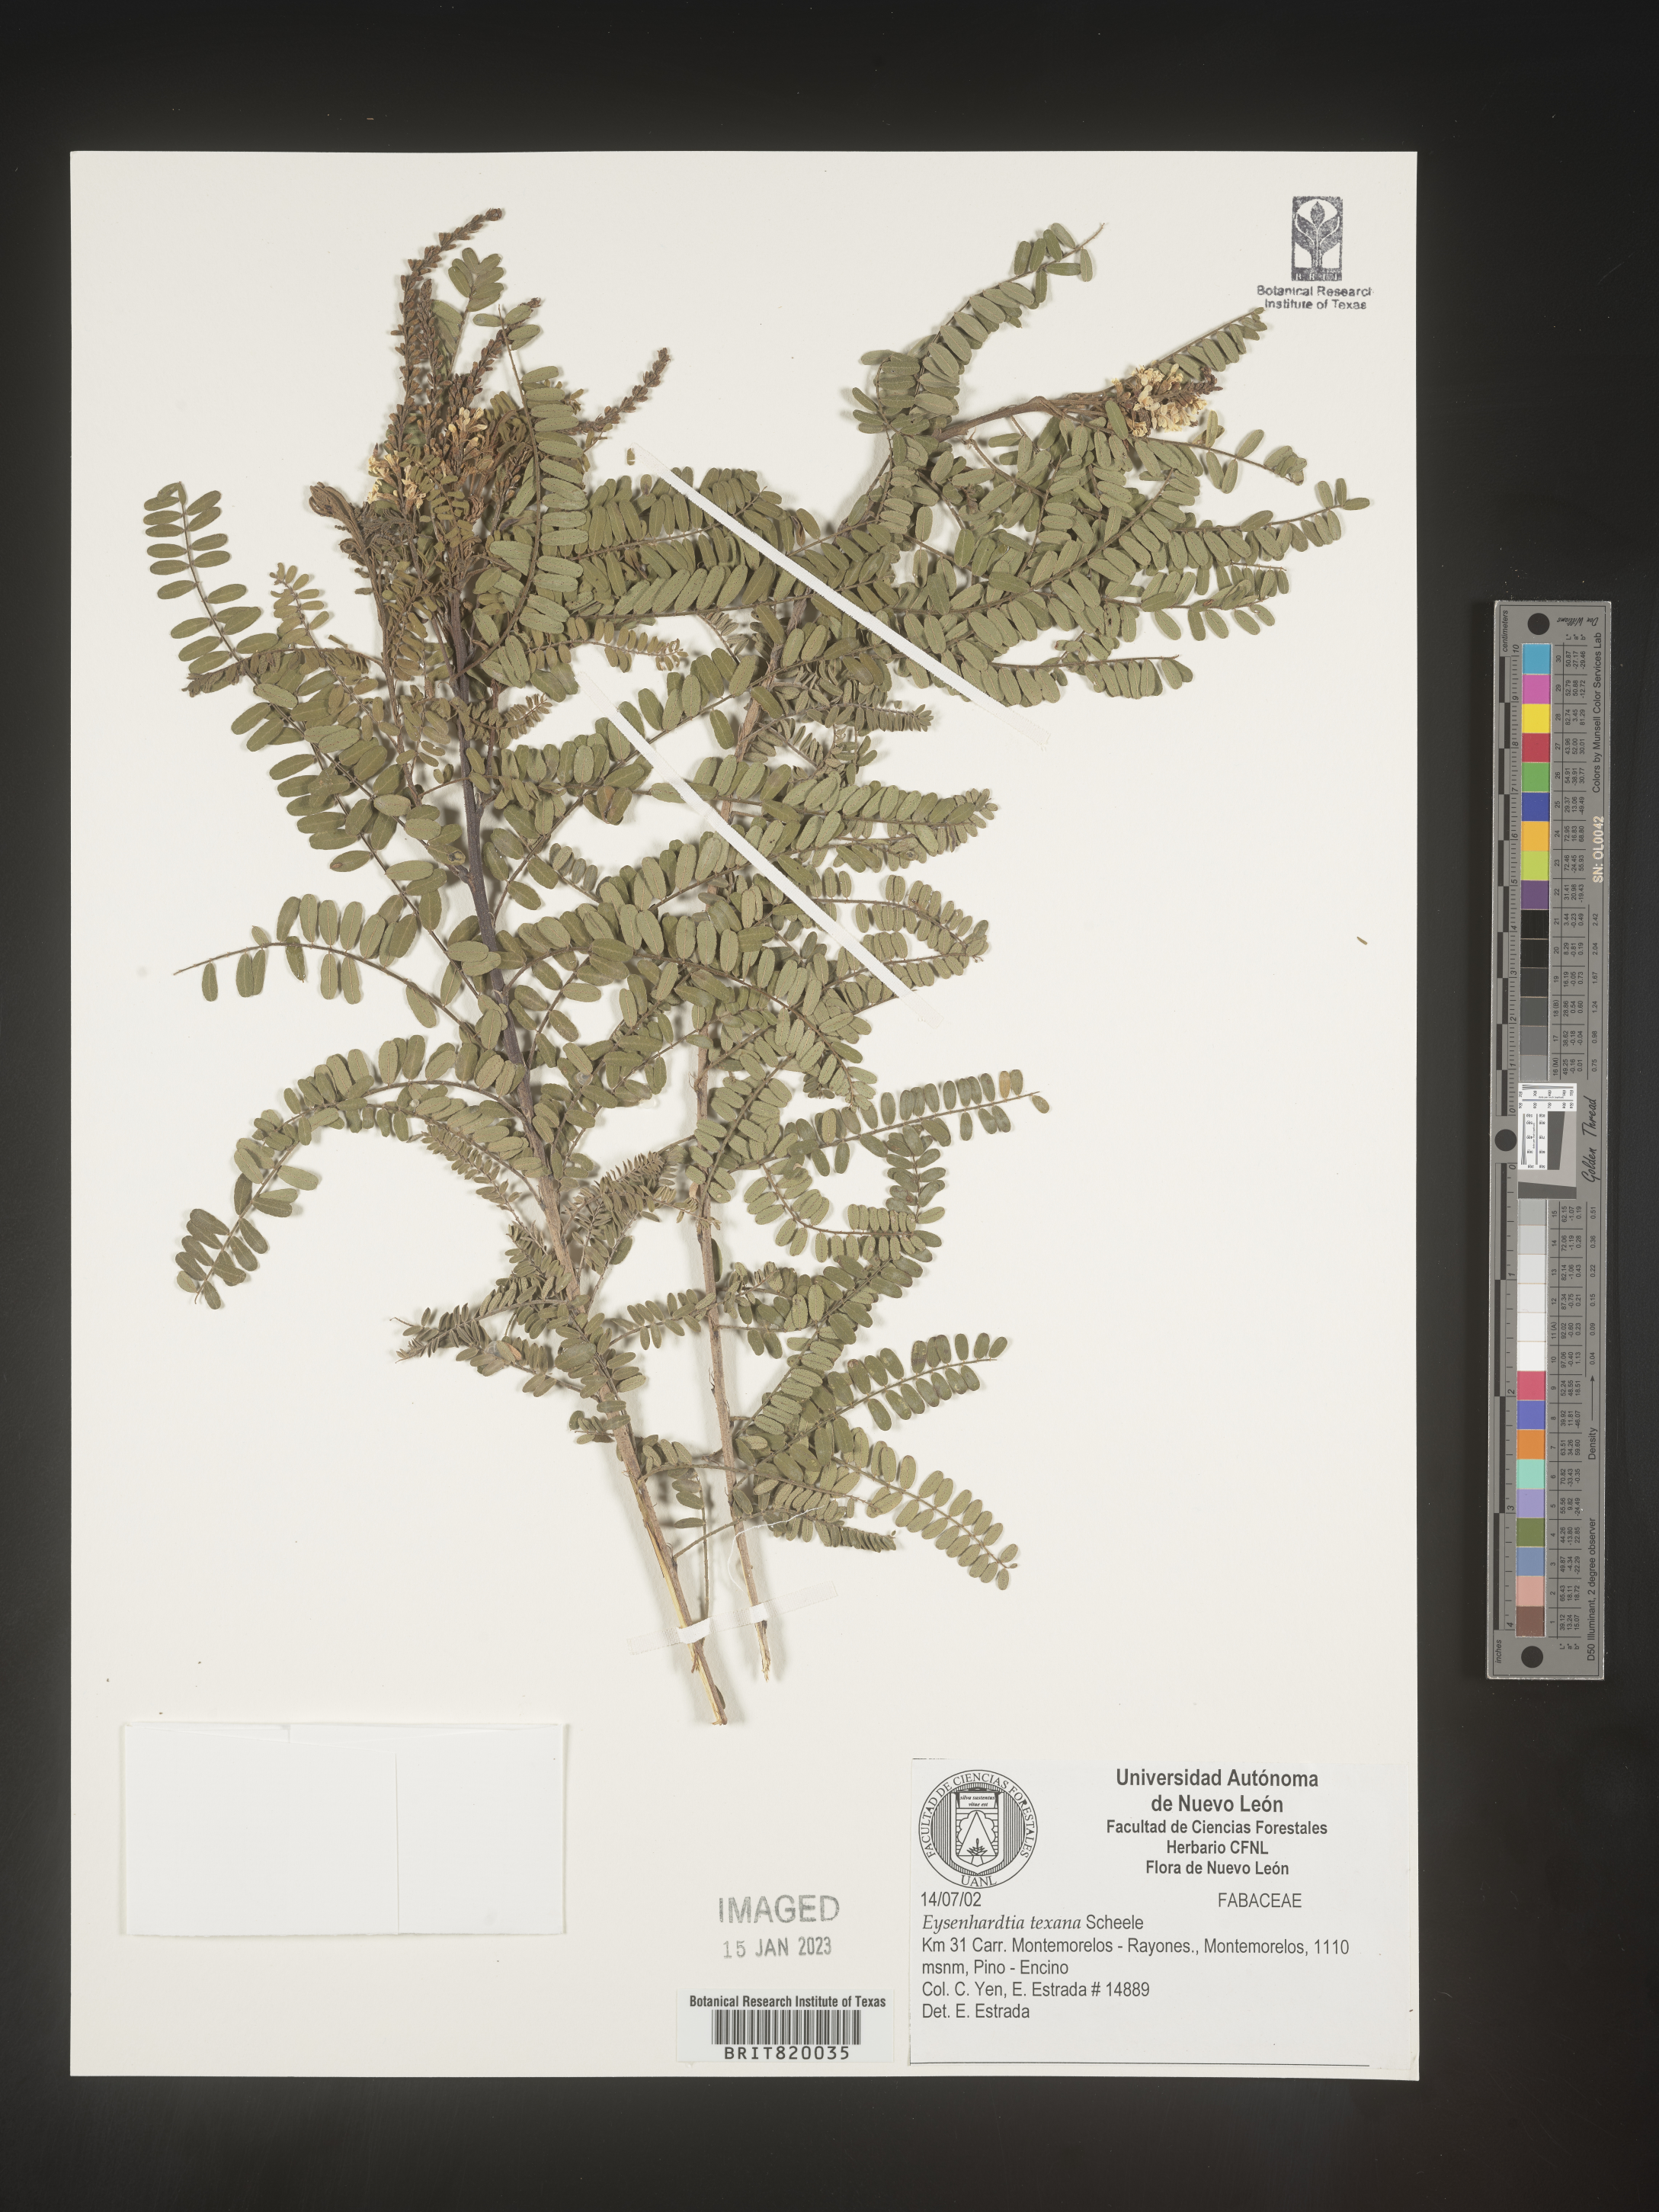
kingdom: Plantae
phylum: Tracheophyta
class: Magnoliopsida
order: Fabales
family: Fabaceae
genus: Eysenhardtia
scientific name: Eysenhardtia
